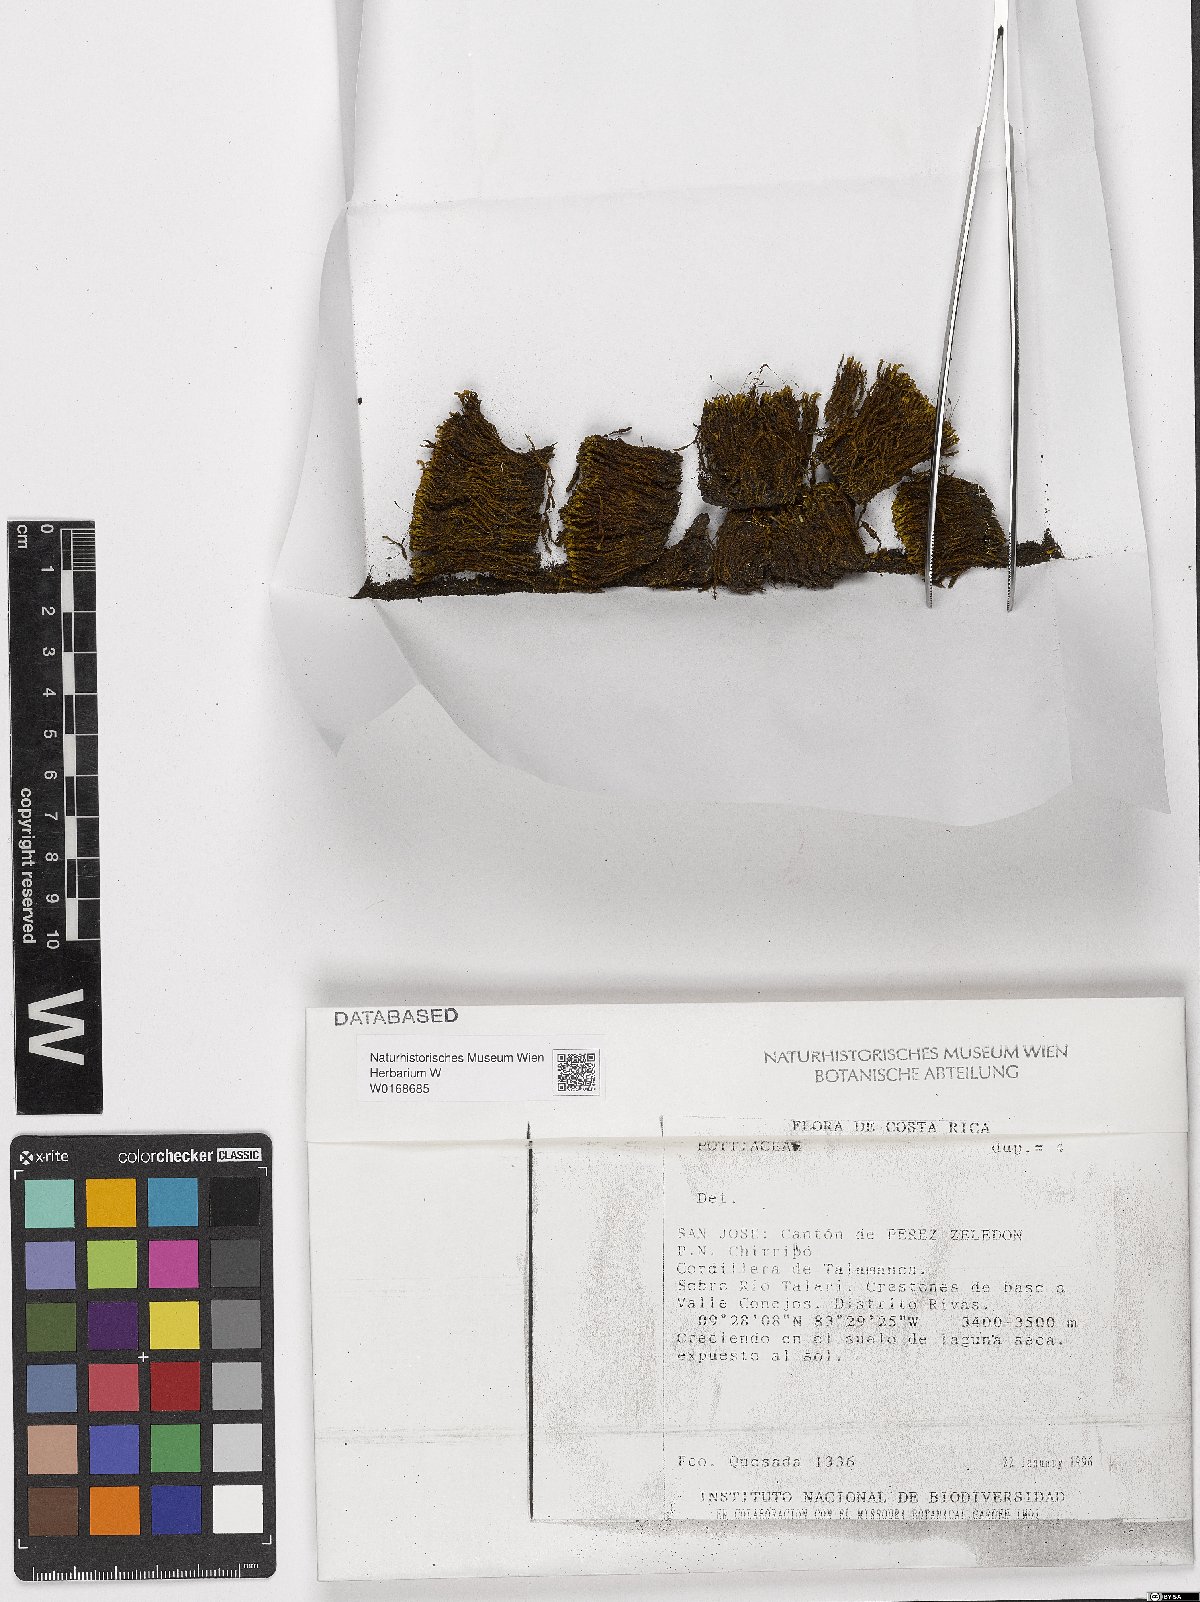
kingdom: Plantae
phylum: Bryophyta
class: Bryopsida
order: Pottiales
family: Pottiaceae
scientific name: Pottiaceae
